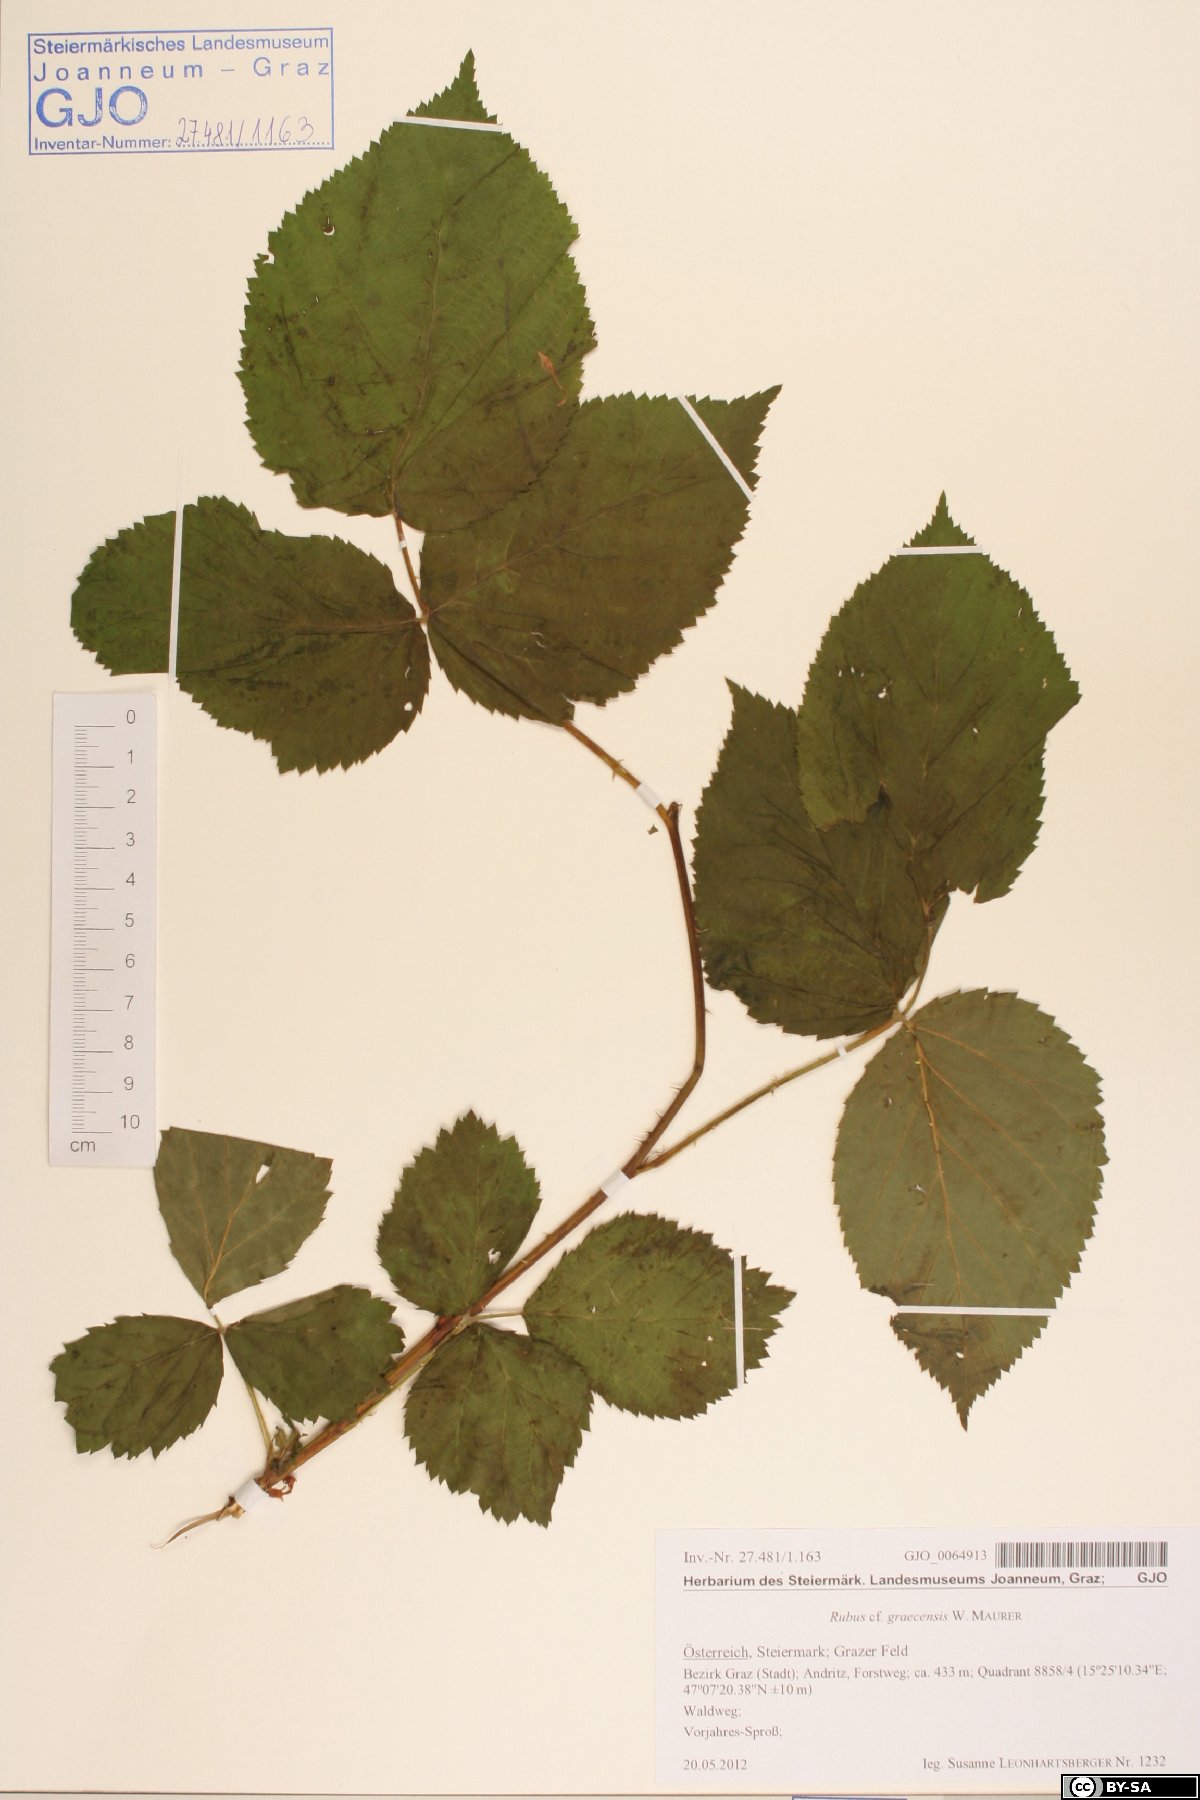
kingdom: Plantae
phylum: Tracheophyta
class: Magnoliopsida
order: Rosales
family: Rosaceae
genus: Rubus
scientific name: Rubus graecensis
